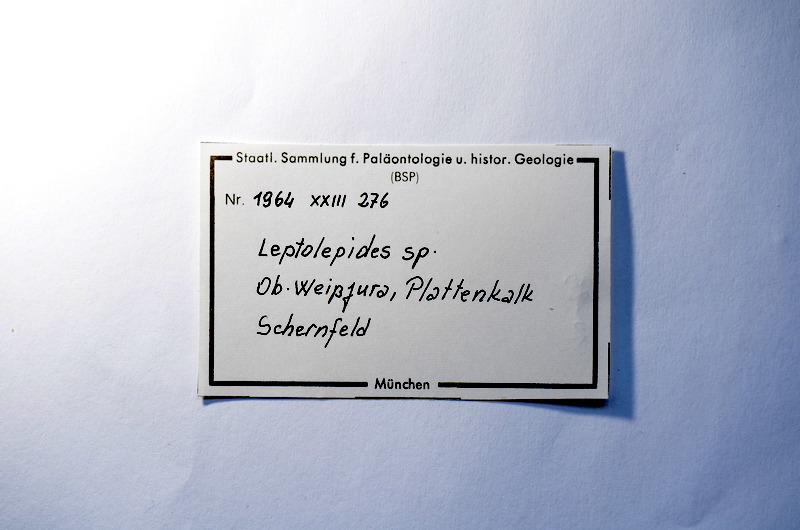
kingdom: Animalia
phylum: Chordata
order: Salmoniformes
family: Orthogonikleithridae
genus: Leptolepides
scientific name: Leptolepides
